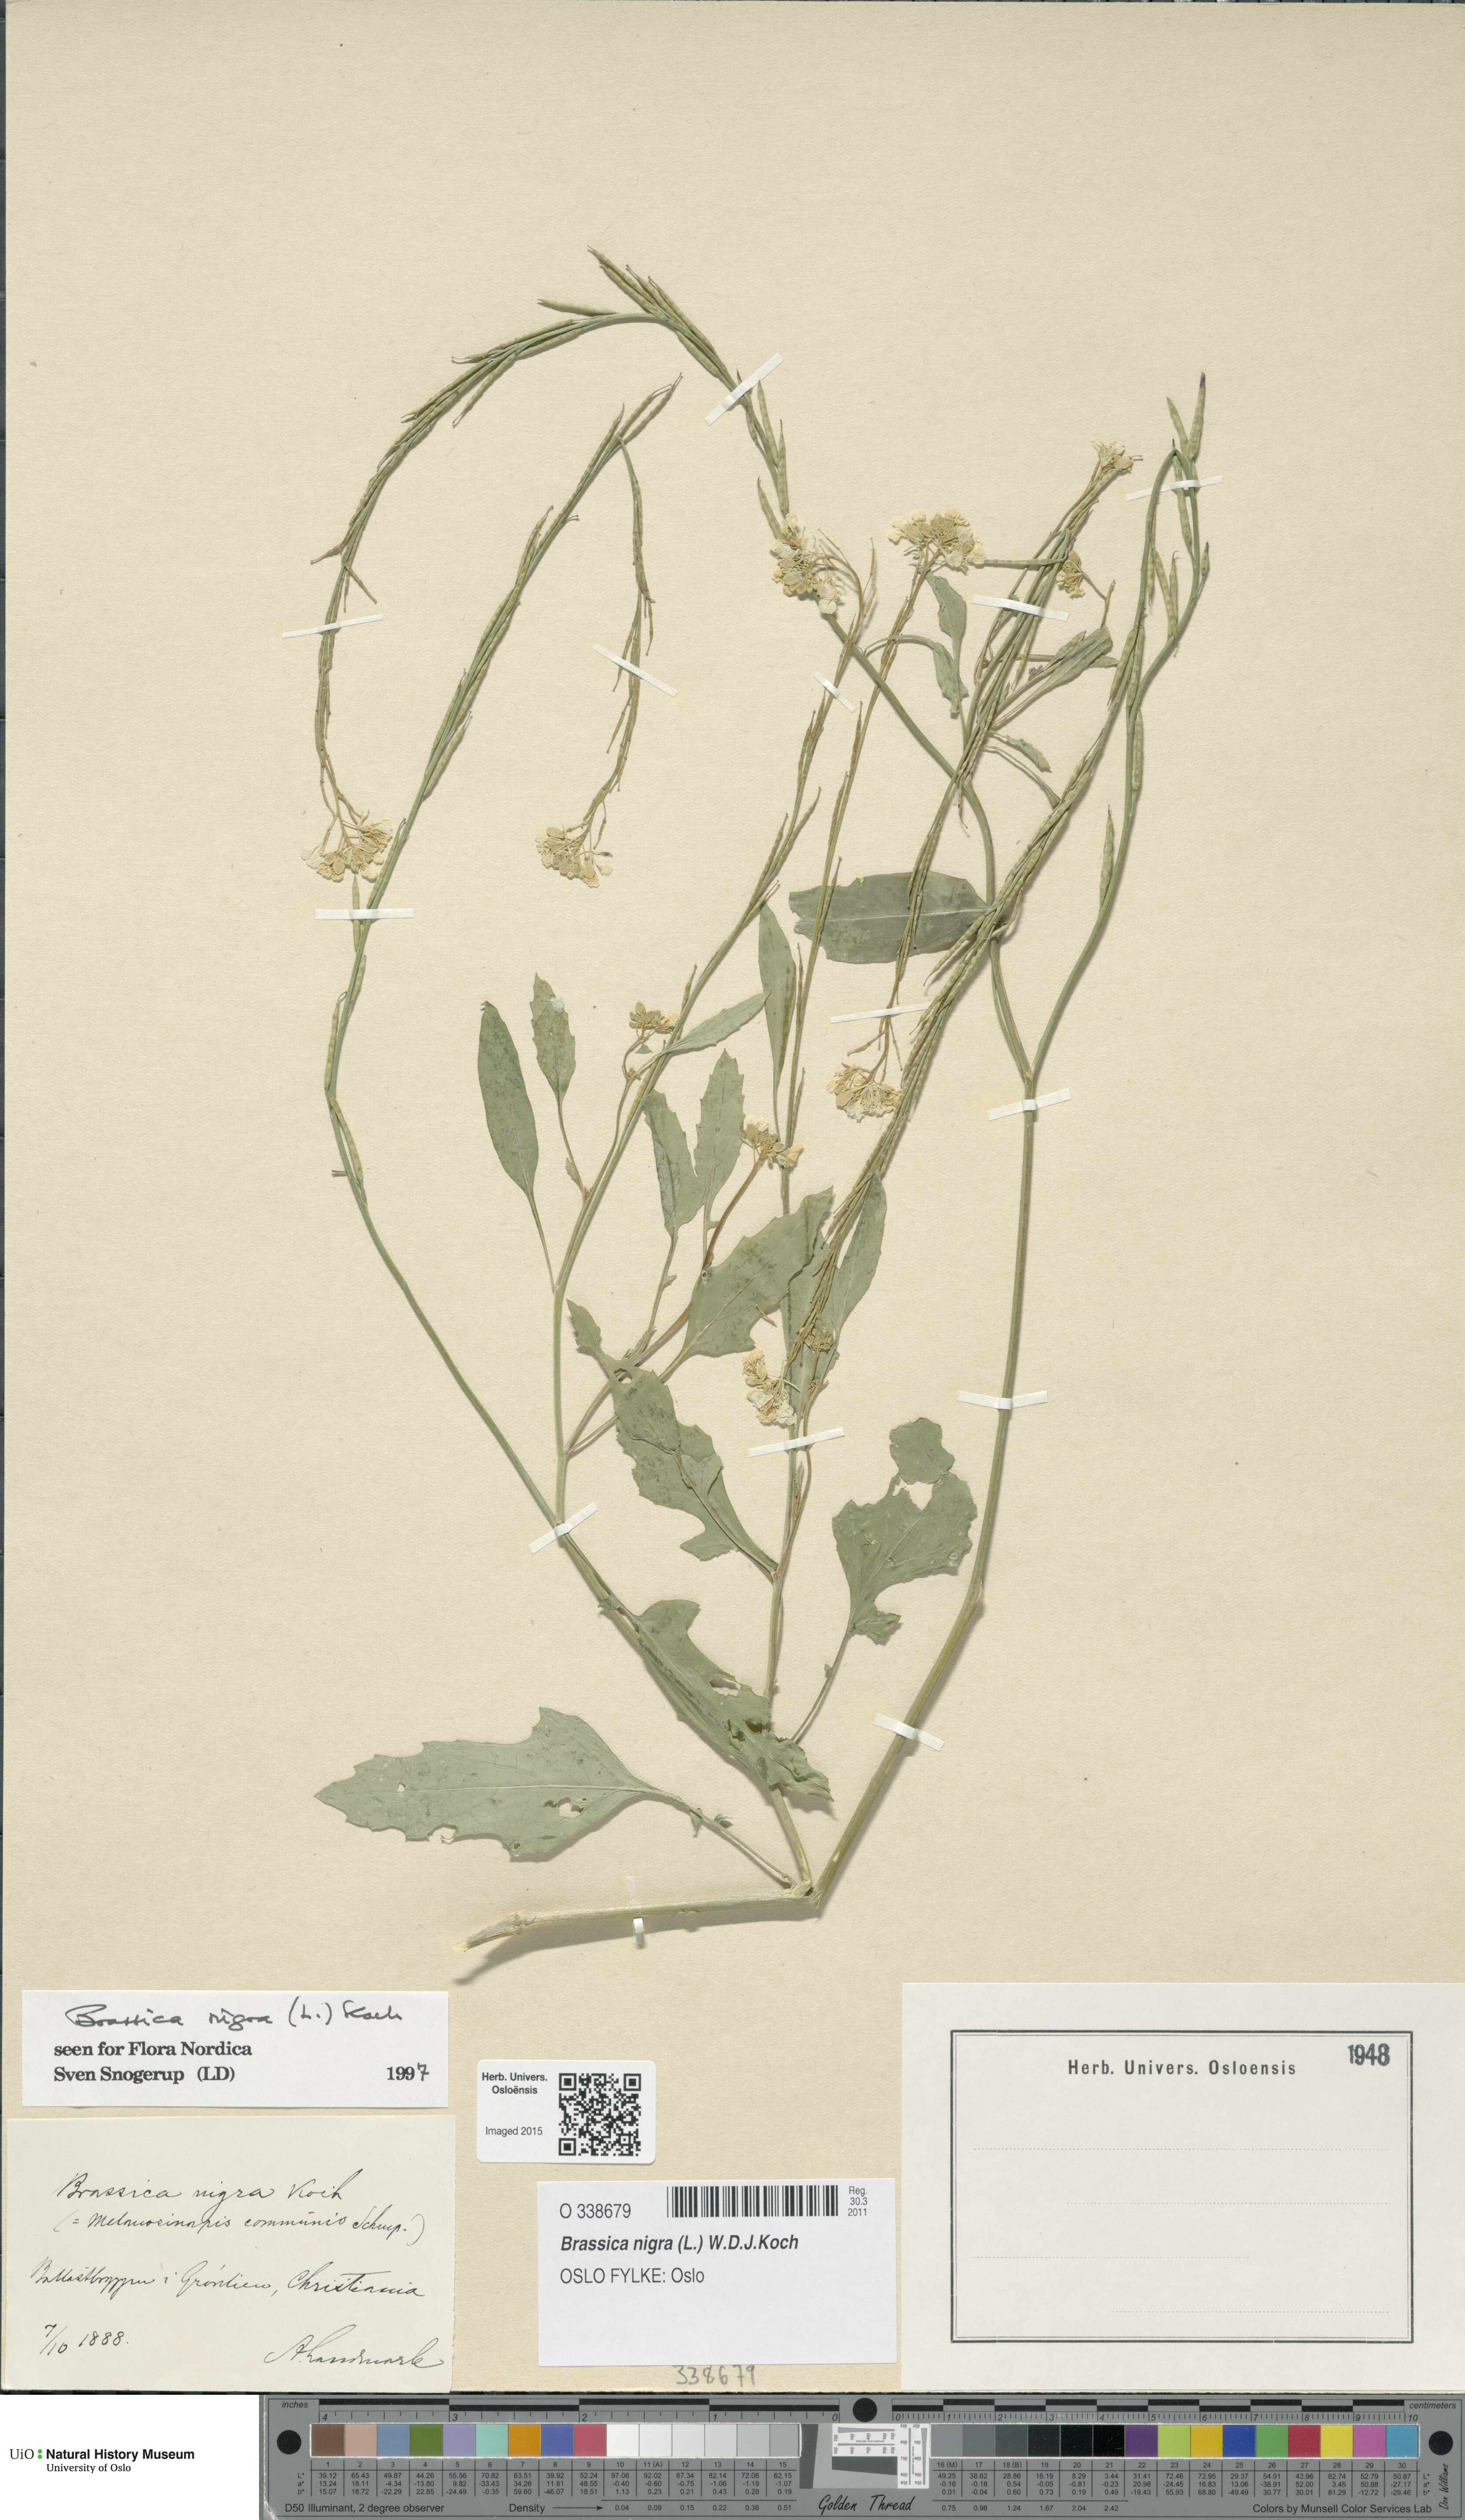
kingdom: Plantae
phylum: Tracheophyta
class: Magnoliopsida
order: Brassicales
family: Brassicaceae
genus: Brassica
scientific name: Brassica nigra
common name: Black mustard
